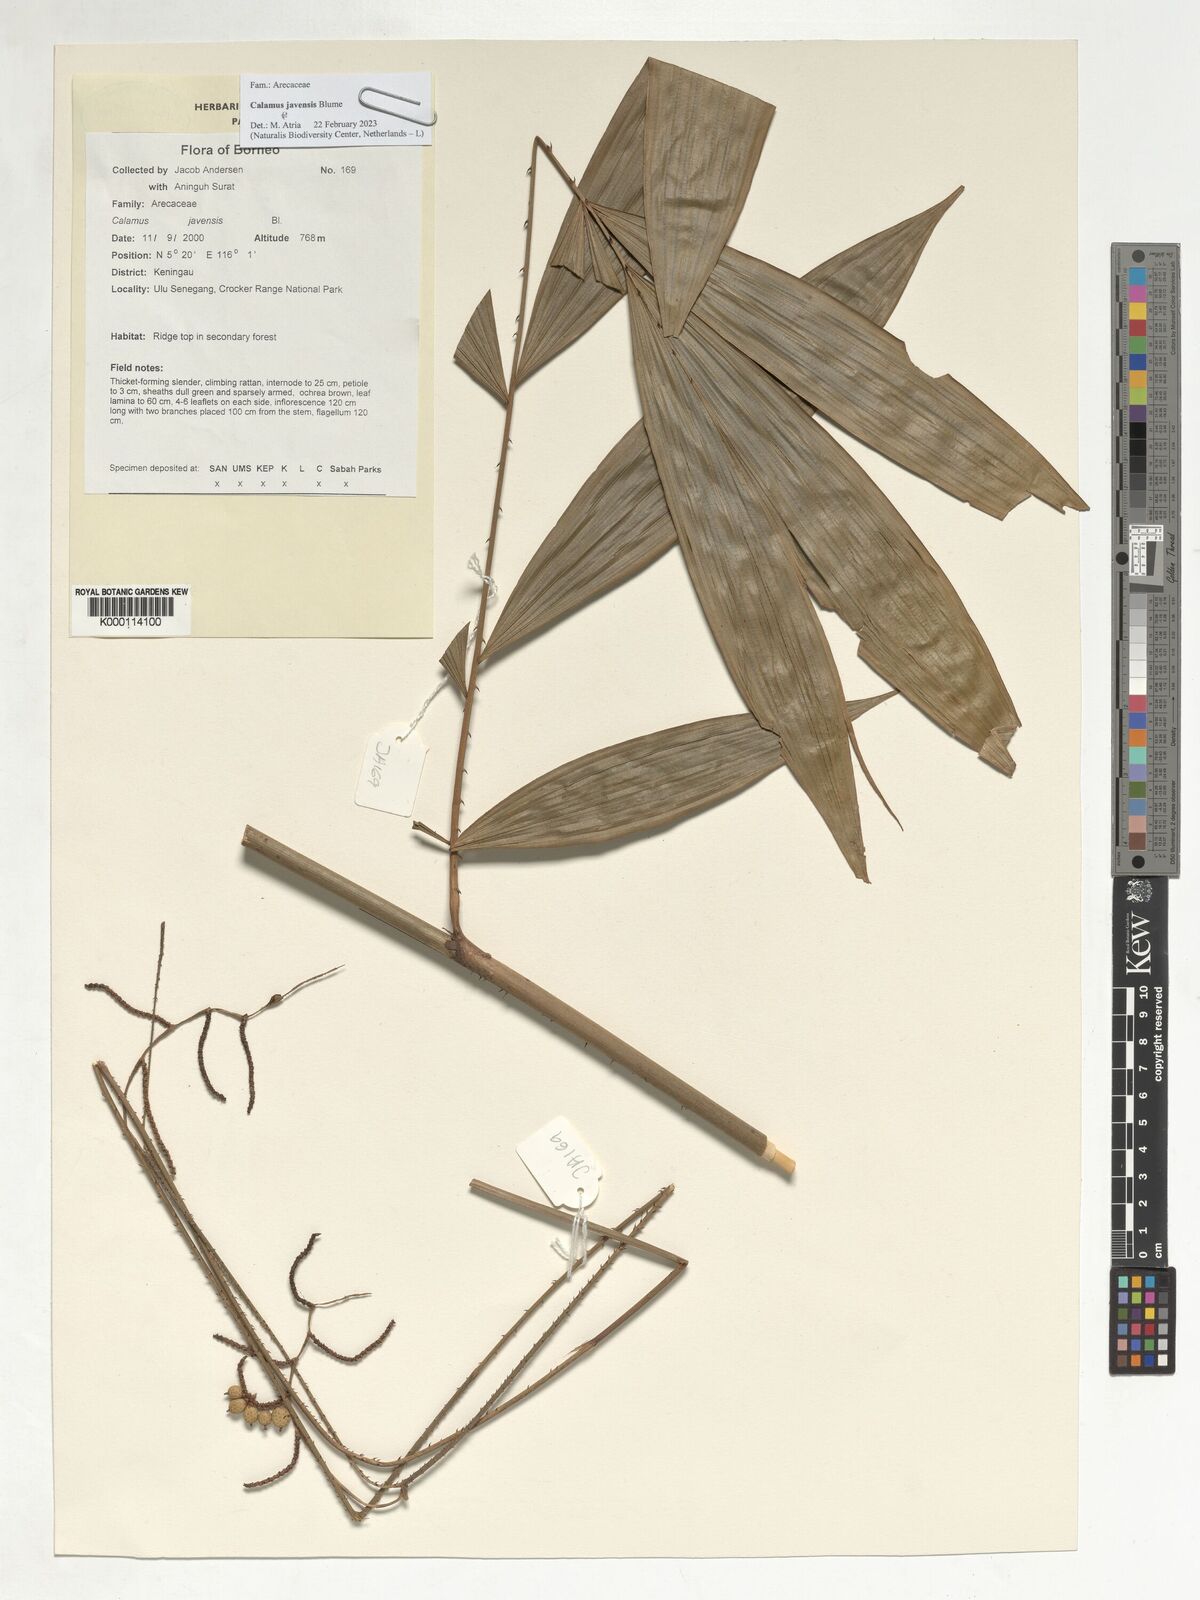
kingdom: Plantae
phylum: Tracheophyta
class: Liliopsida
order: Arecales
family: Arecaceae
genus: Calamus
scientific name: Calamus javensis
